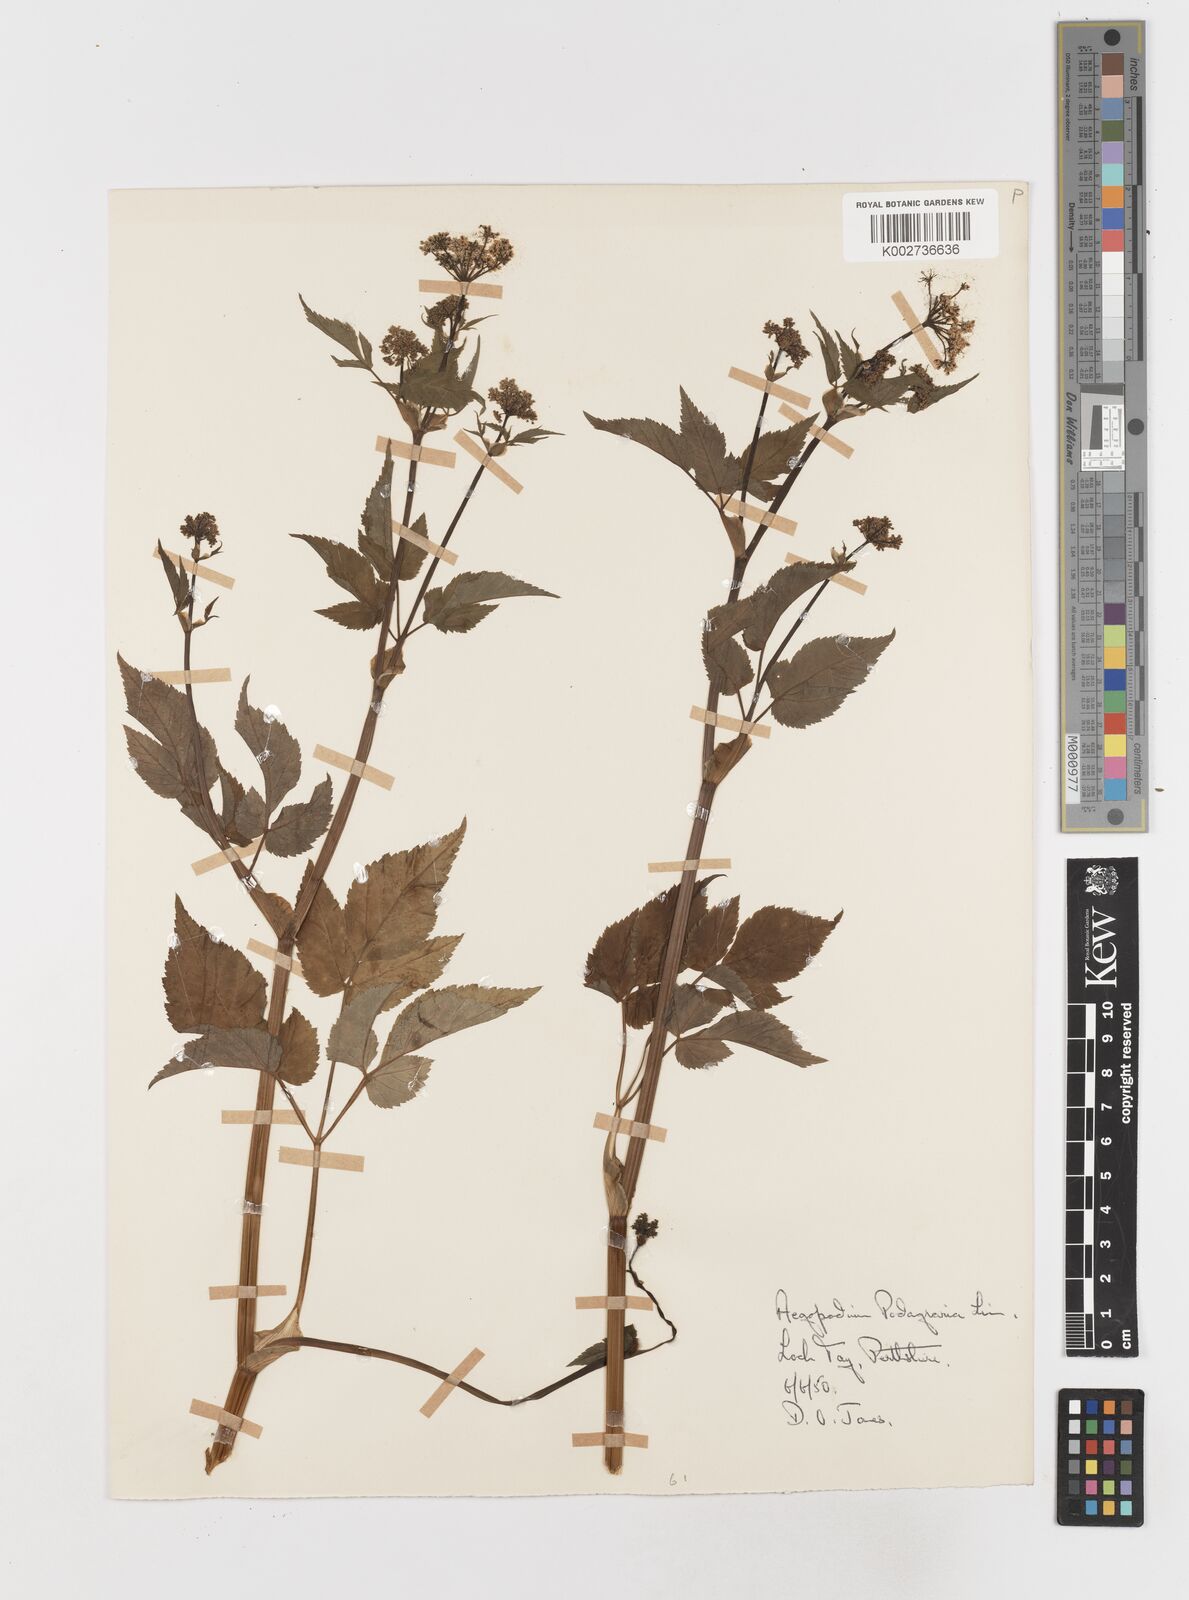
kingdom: Plantae
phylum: Tracheophyta
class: Magnoliopsida
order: Apiales
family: Apiaceae
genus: Aegopodium
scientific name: Aegopodium podagraria
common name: Ground-elder
